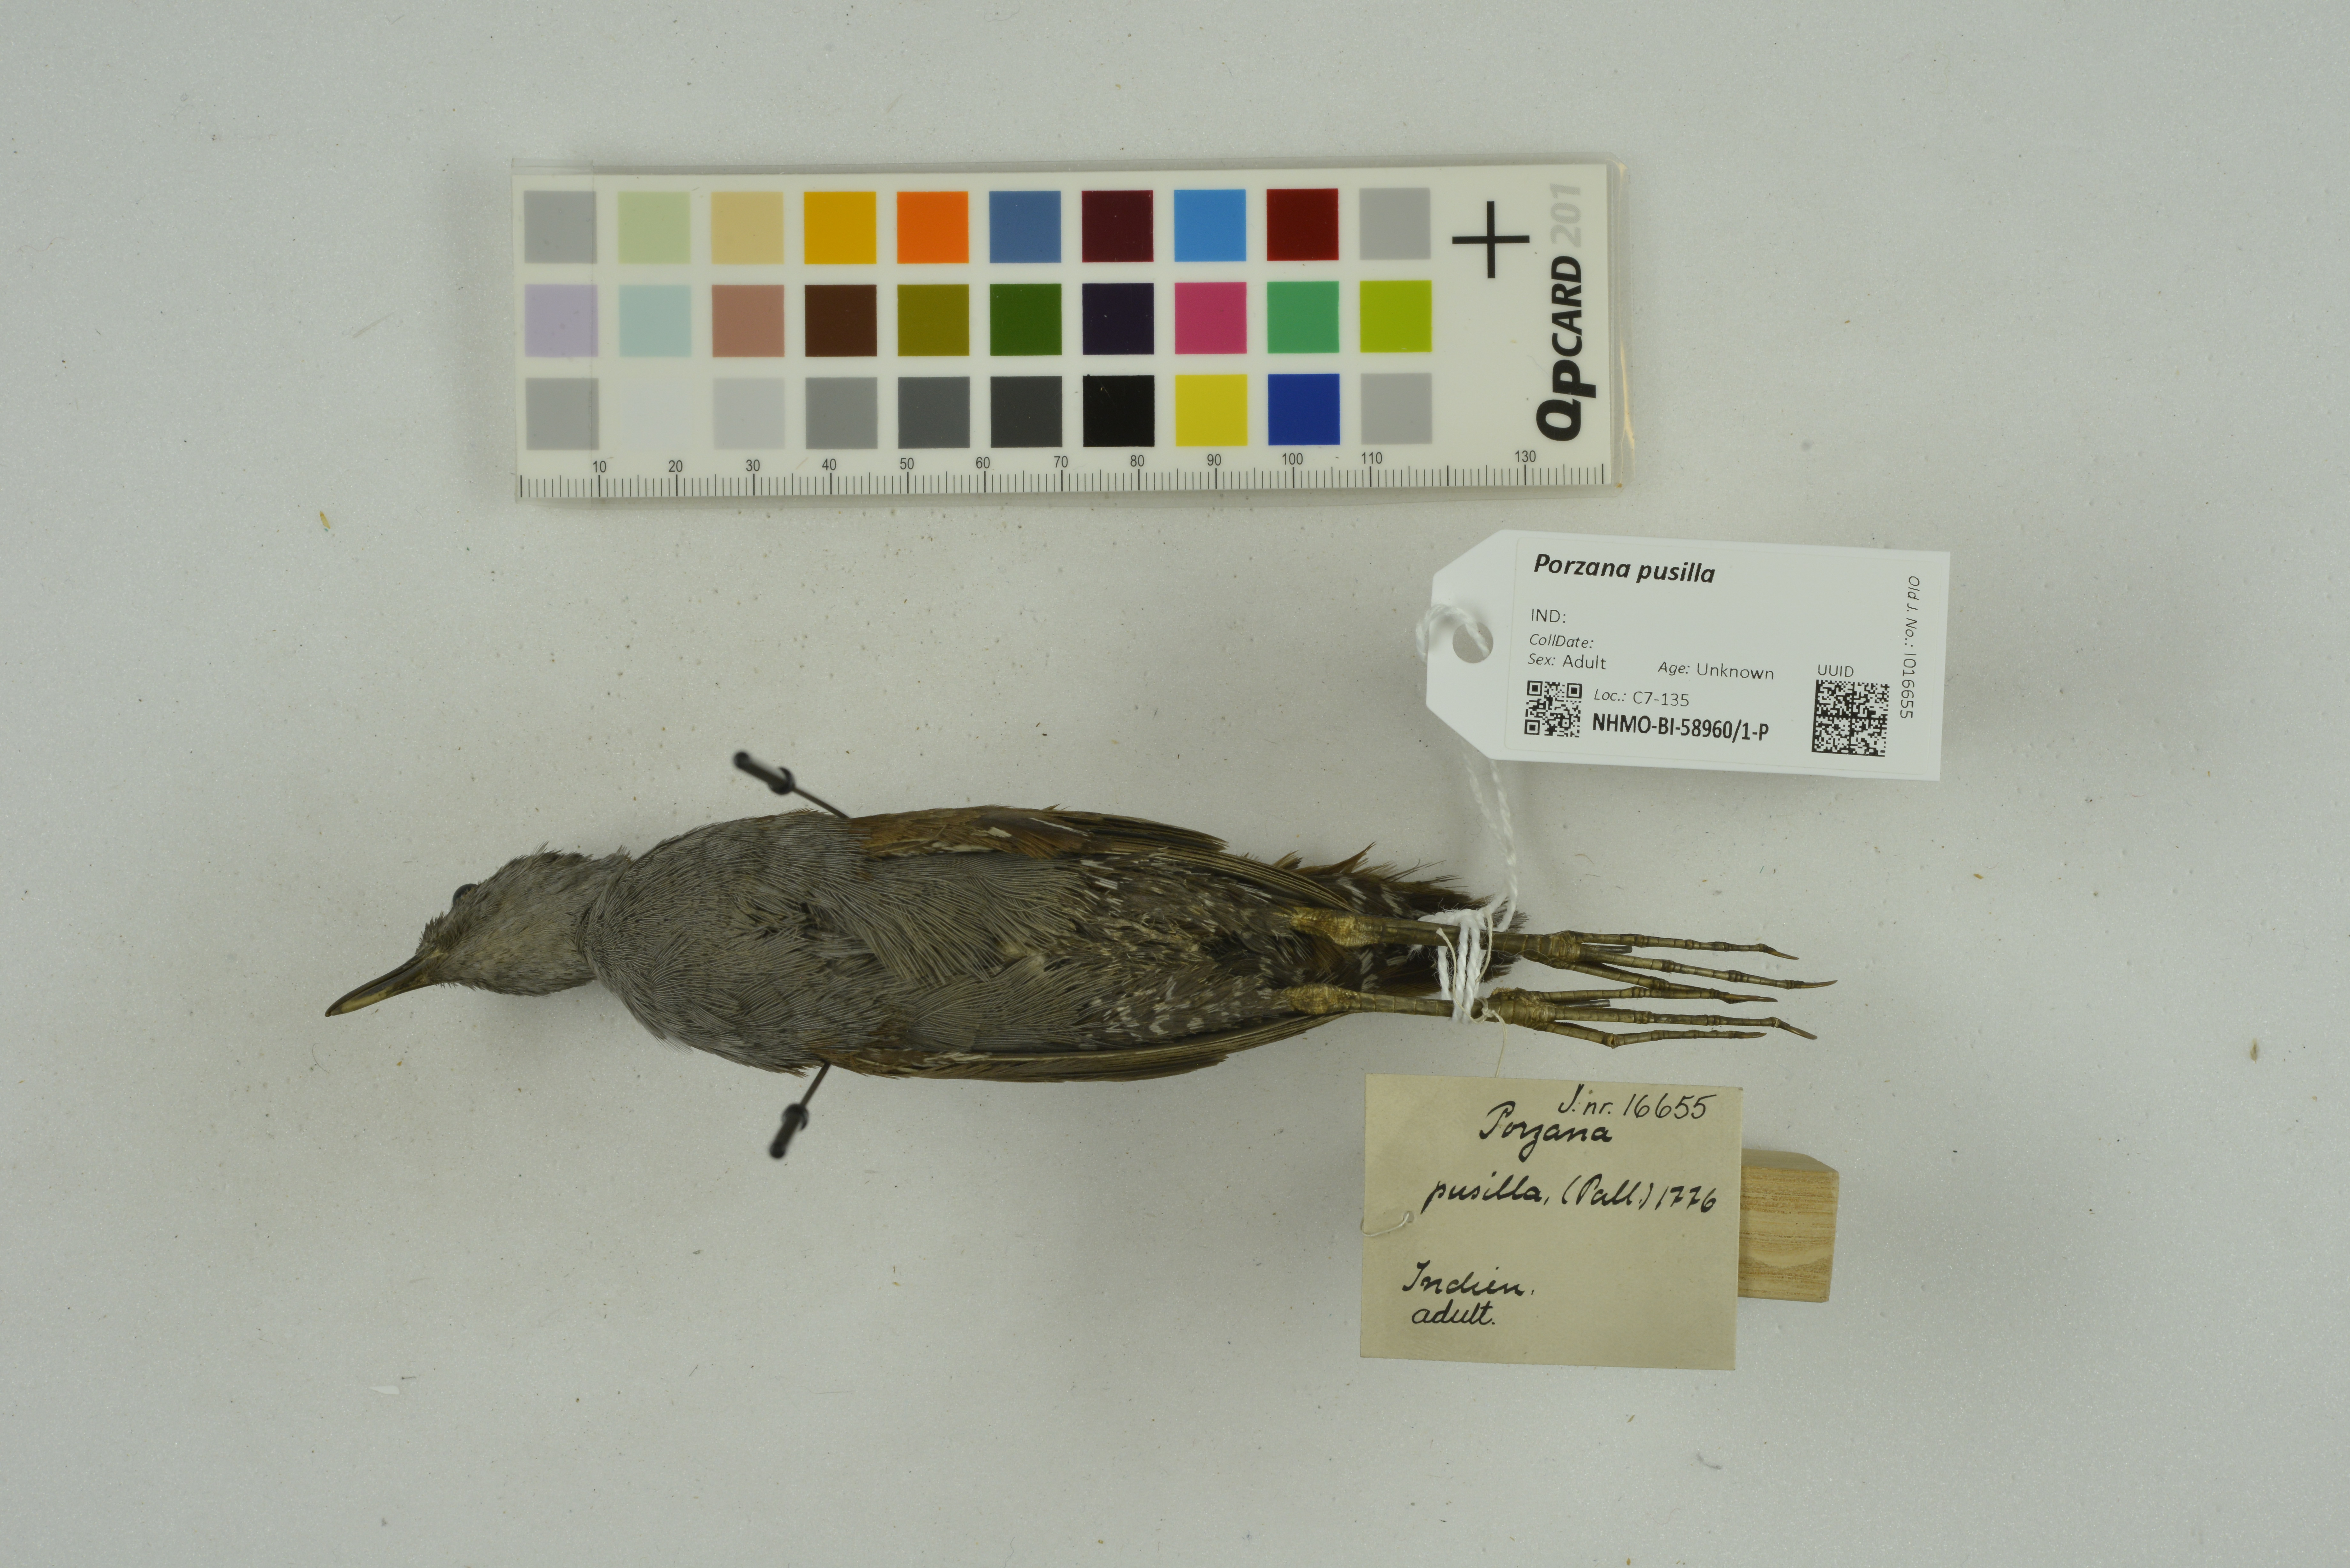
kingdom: Animalia
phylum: Chordata
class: Aves
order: Gruiformes
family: Rallidae
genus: Porzana
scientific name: Porzana pusilla
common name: Baillon's crake
